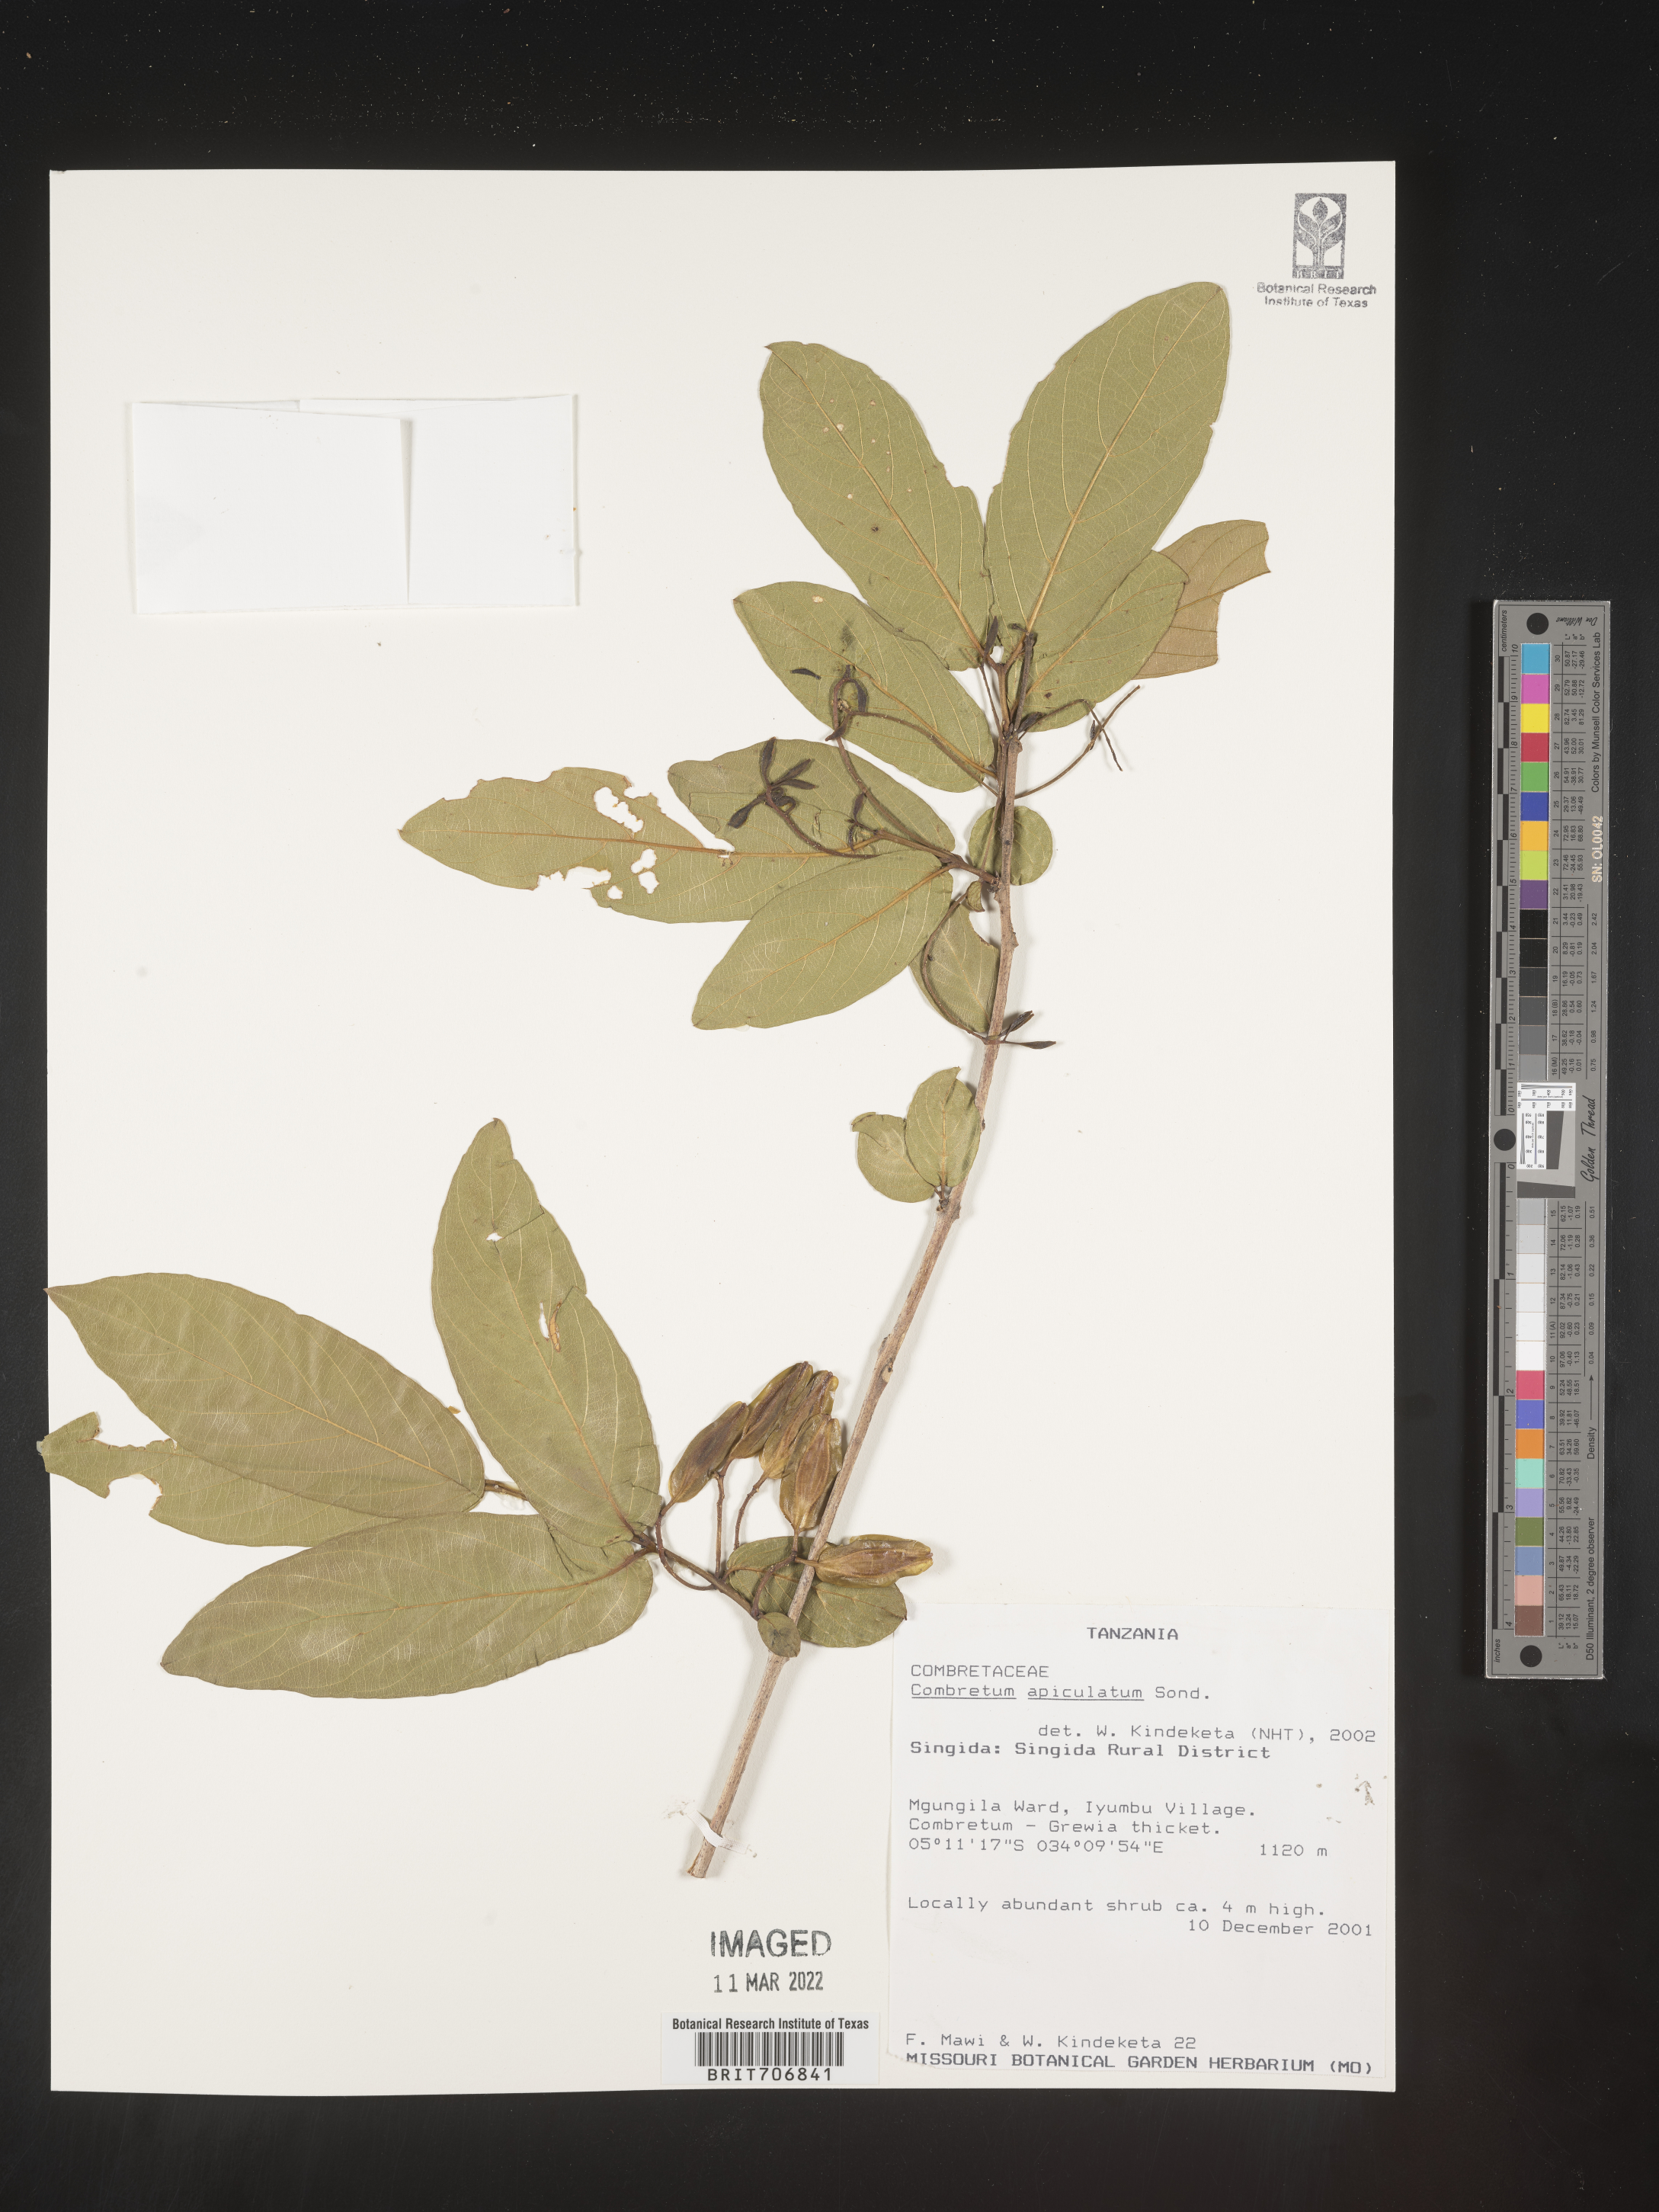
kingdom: Plantae
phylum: Tracheophyta
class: Magnoliopsida
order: Myrtales
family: Combretaceae
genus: Combretum
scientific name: Combretum
